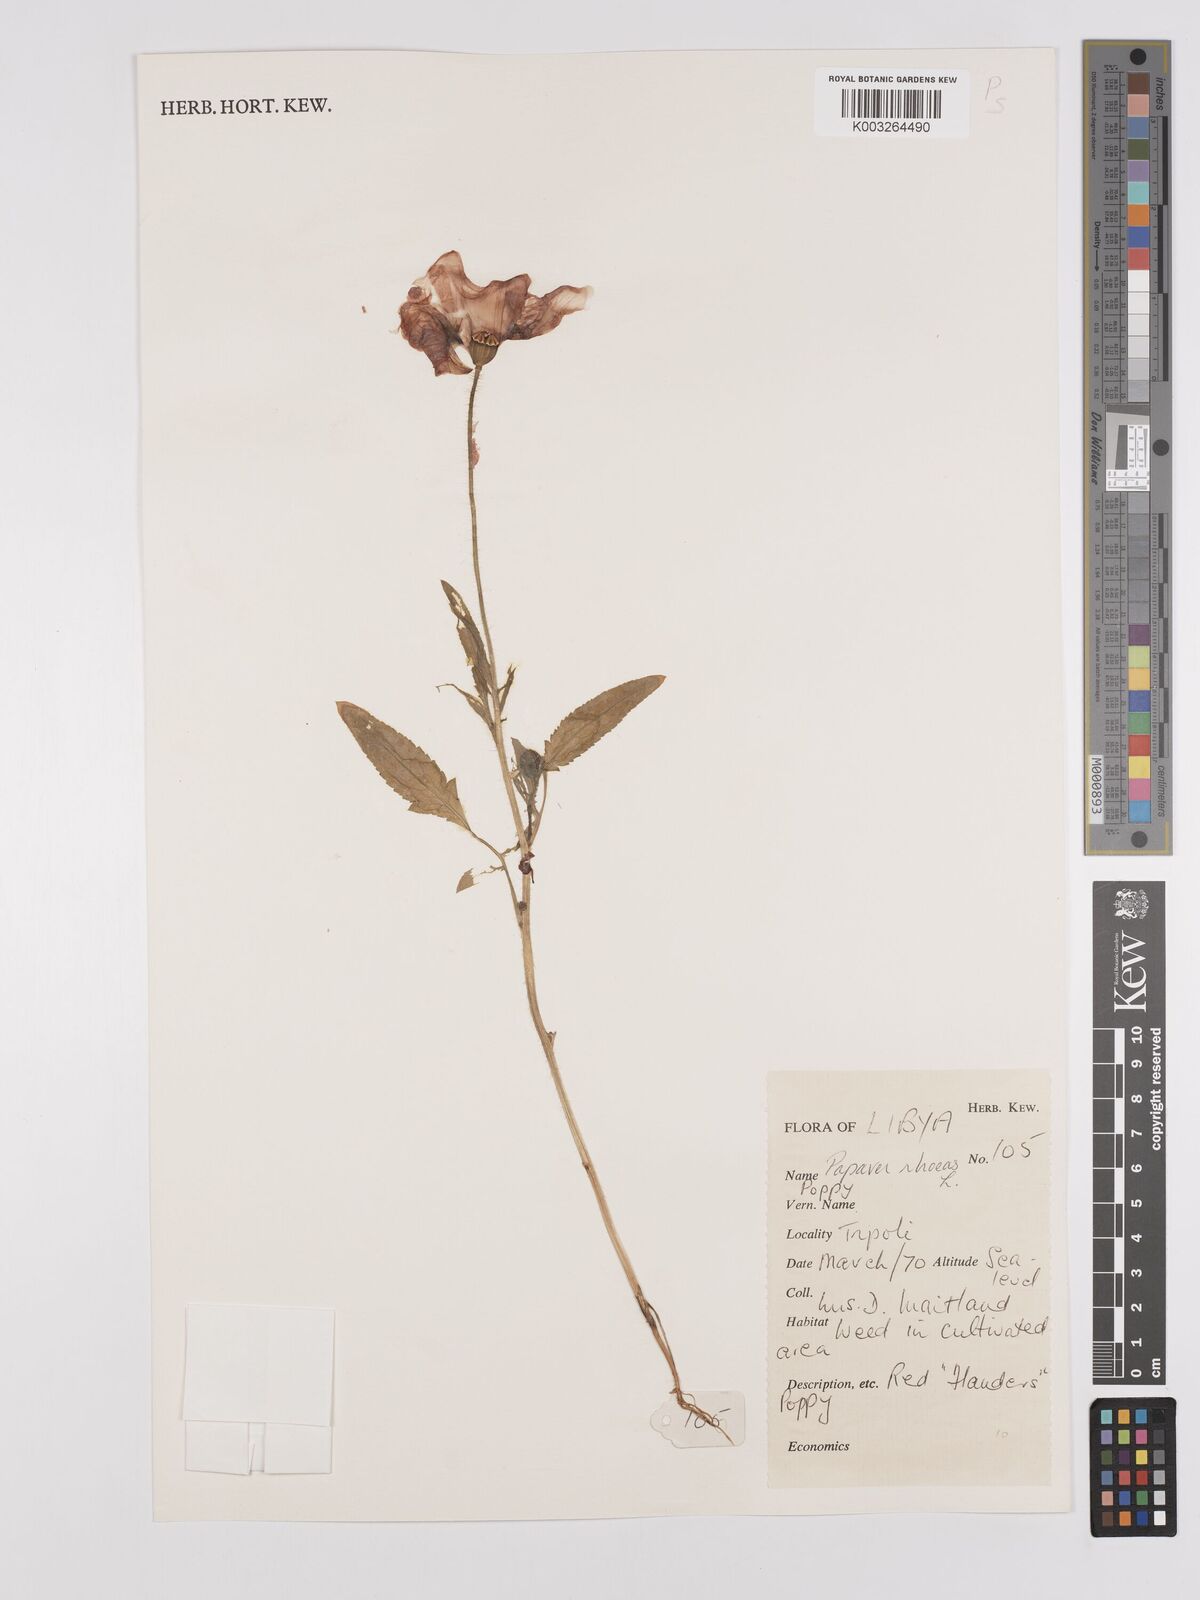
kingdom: Plantae
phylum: Tracheophyta
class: Magnoliopsida
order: Ranunculales
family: Papaveraceae
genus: Papaver
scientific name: Papaver rhoeas
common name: Corn poppy
